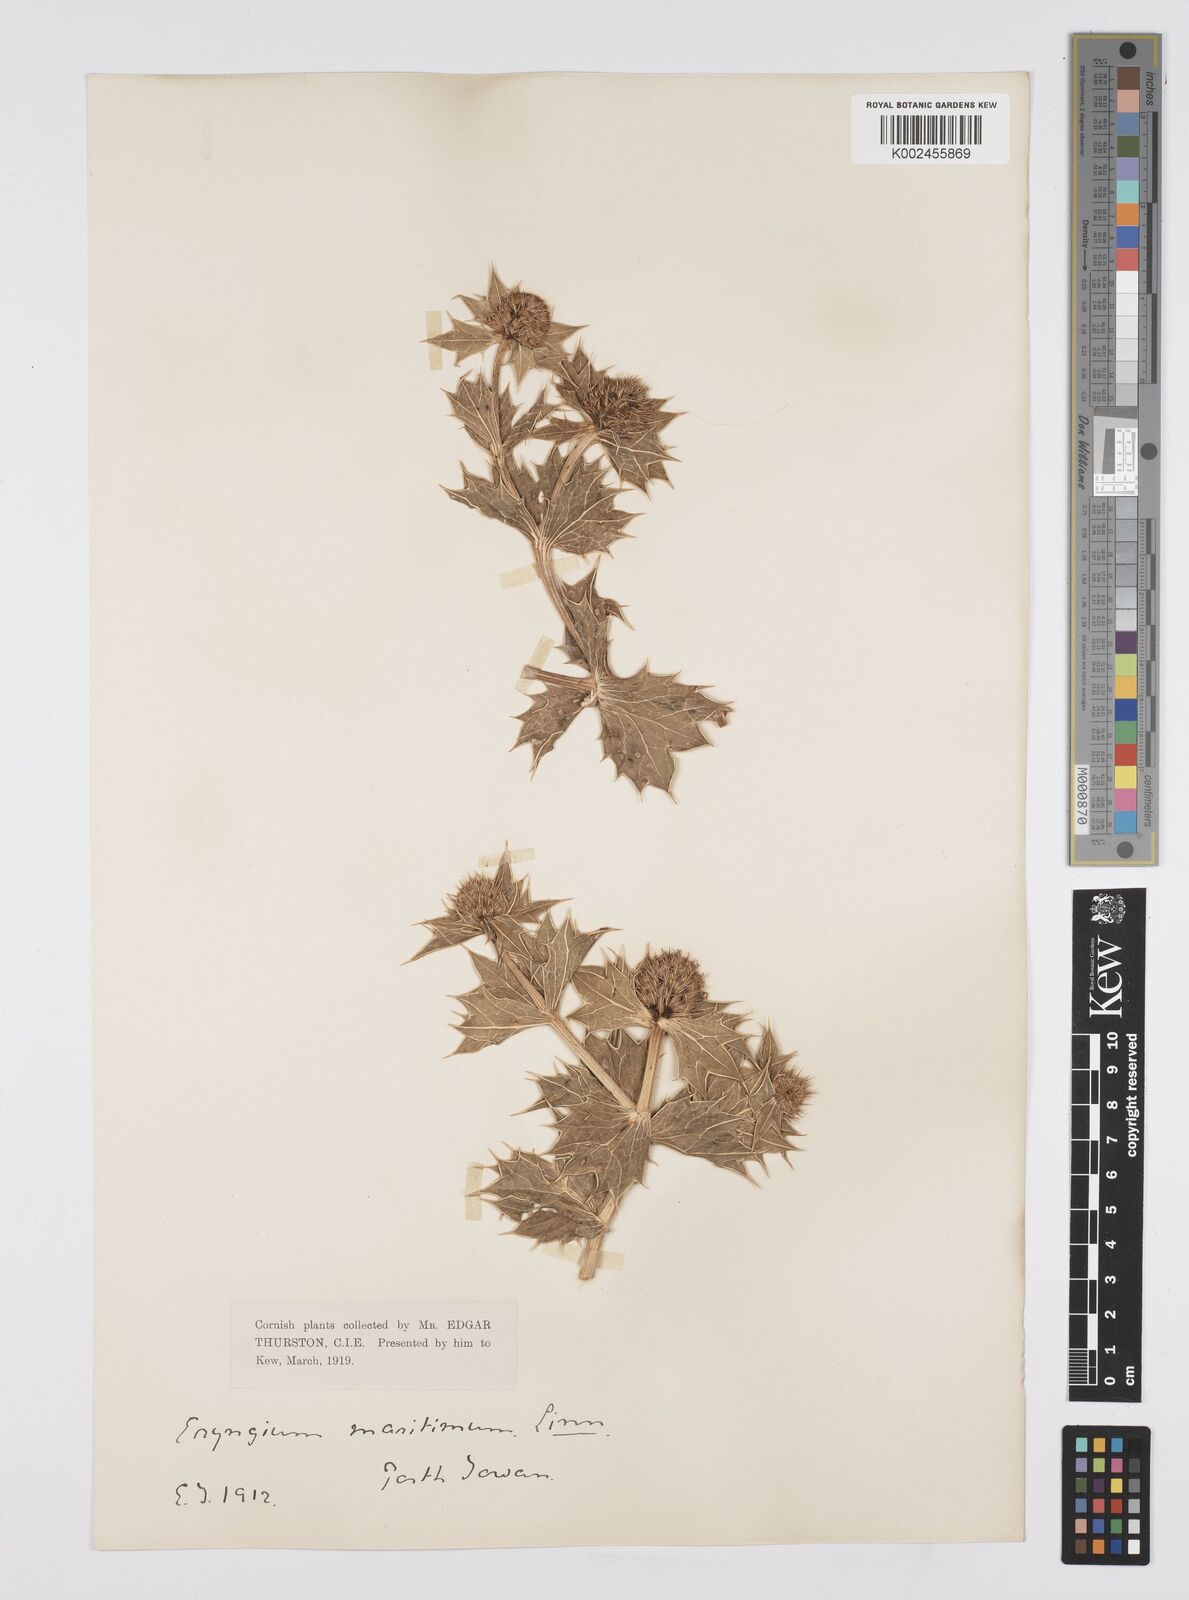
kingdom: Plantae
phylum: Tracheophyta
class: Magnoliopsida
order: Apiales
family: Apiaceae
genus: Eryngium
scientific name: Eryngium maritimum
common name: Sea-holly
